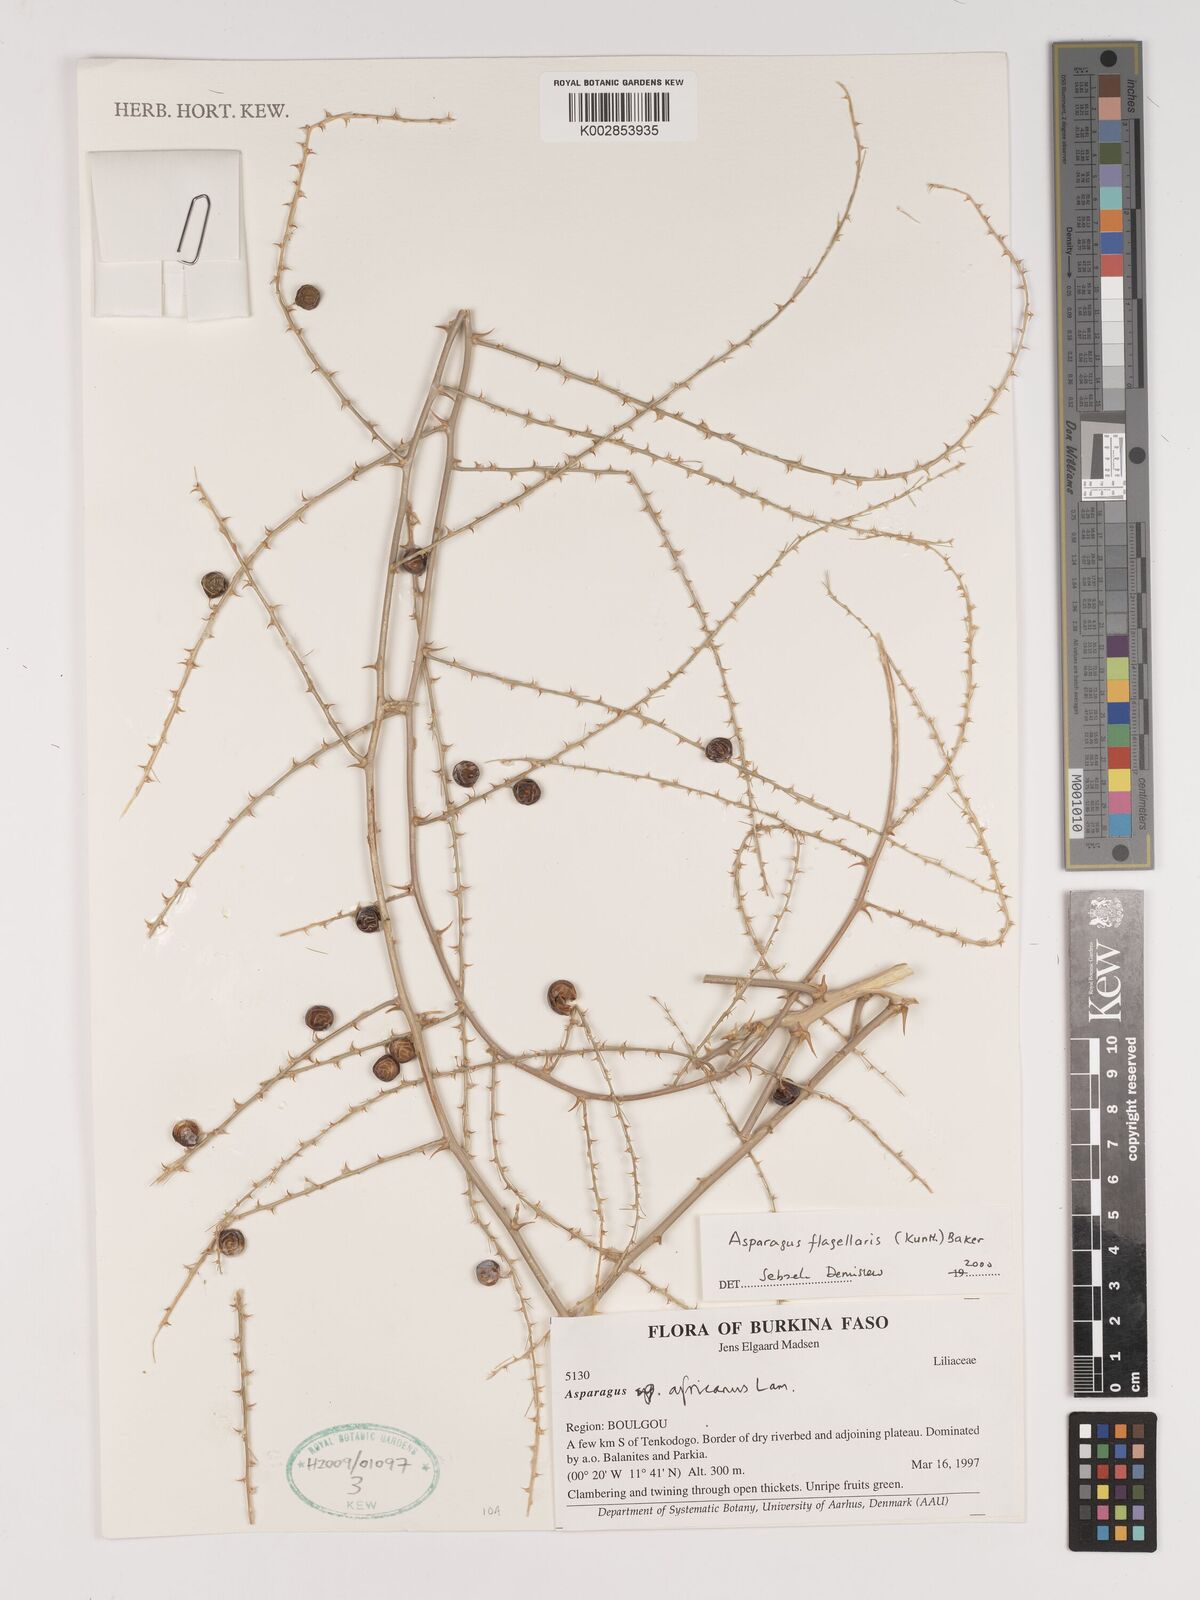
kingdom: Plantae
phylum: Tracheophyta
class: Liliopsida
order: Asparagales
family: Asparagaceae
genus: Asparagus
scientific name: Asparagus flagellaris
